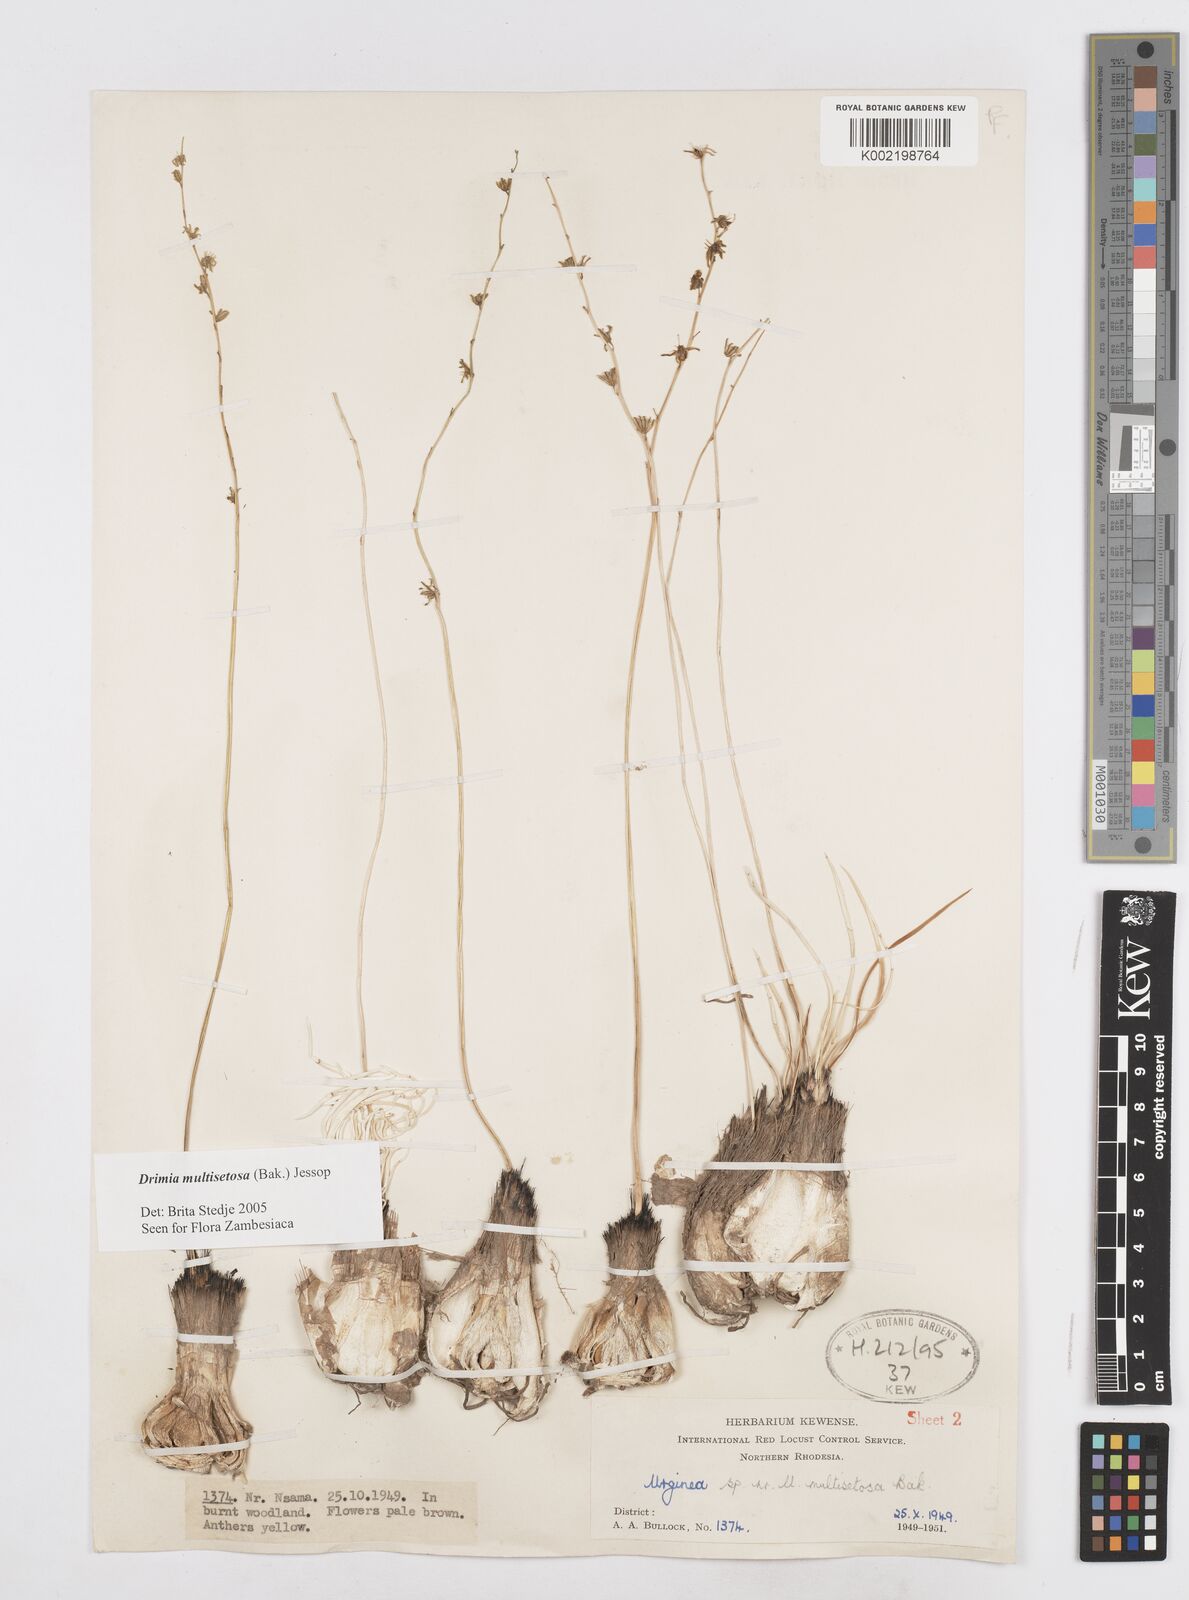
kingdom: Plantae
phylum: Tracheophyta
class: Liliopsida
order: Asparagales
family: Asparagaceae
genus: Drimia
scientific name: Drimia multisetosa
